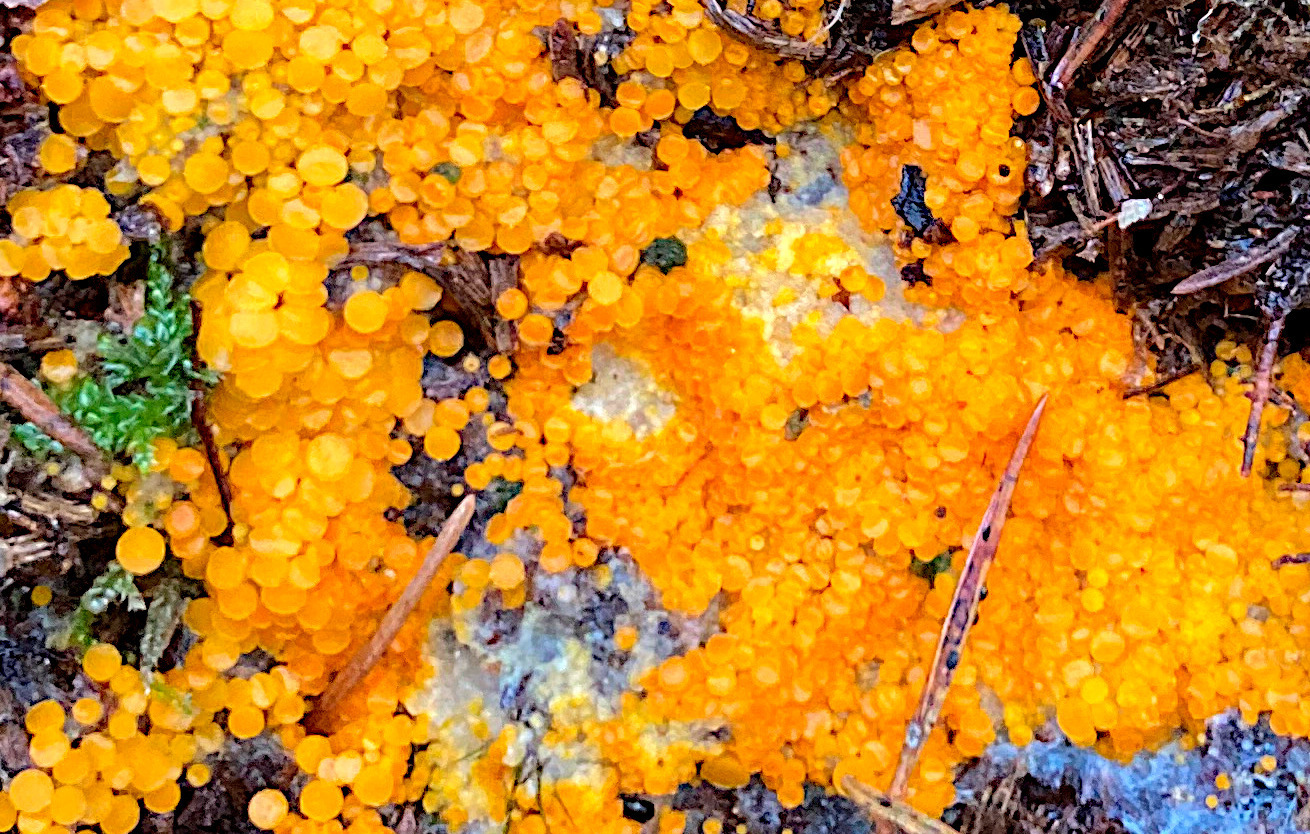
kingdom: Fungi
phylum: Ascomycota
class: Pezizomycetes
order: Pezizales
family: Pyronemataceae
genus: Byssonectria
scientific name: Byssonectria terrestris
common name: hjortebæger
